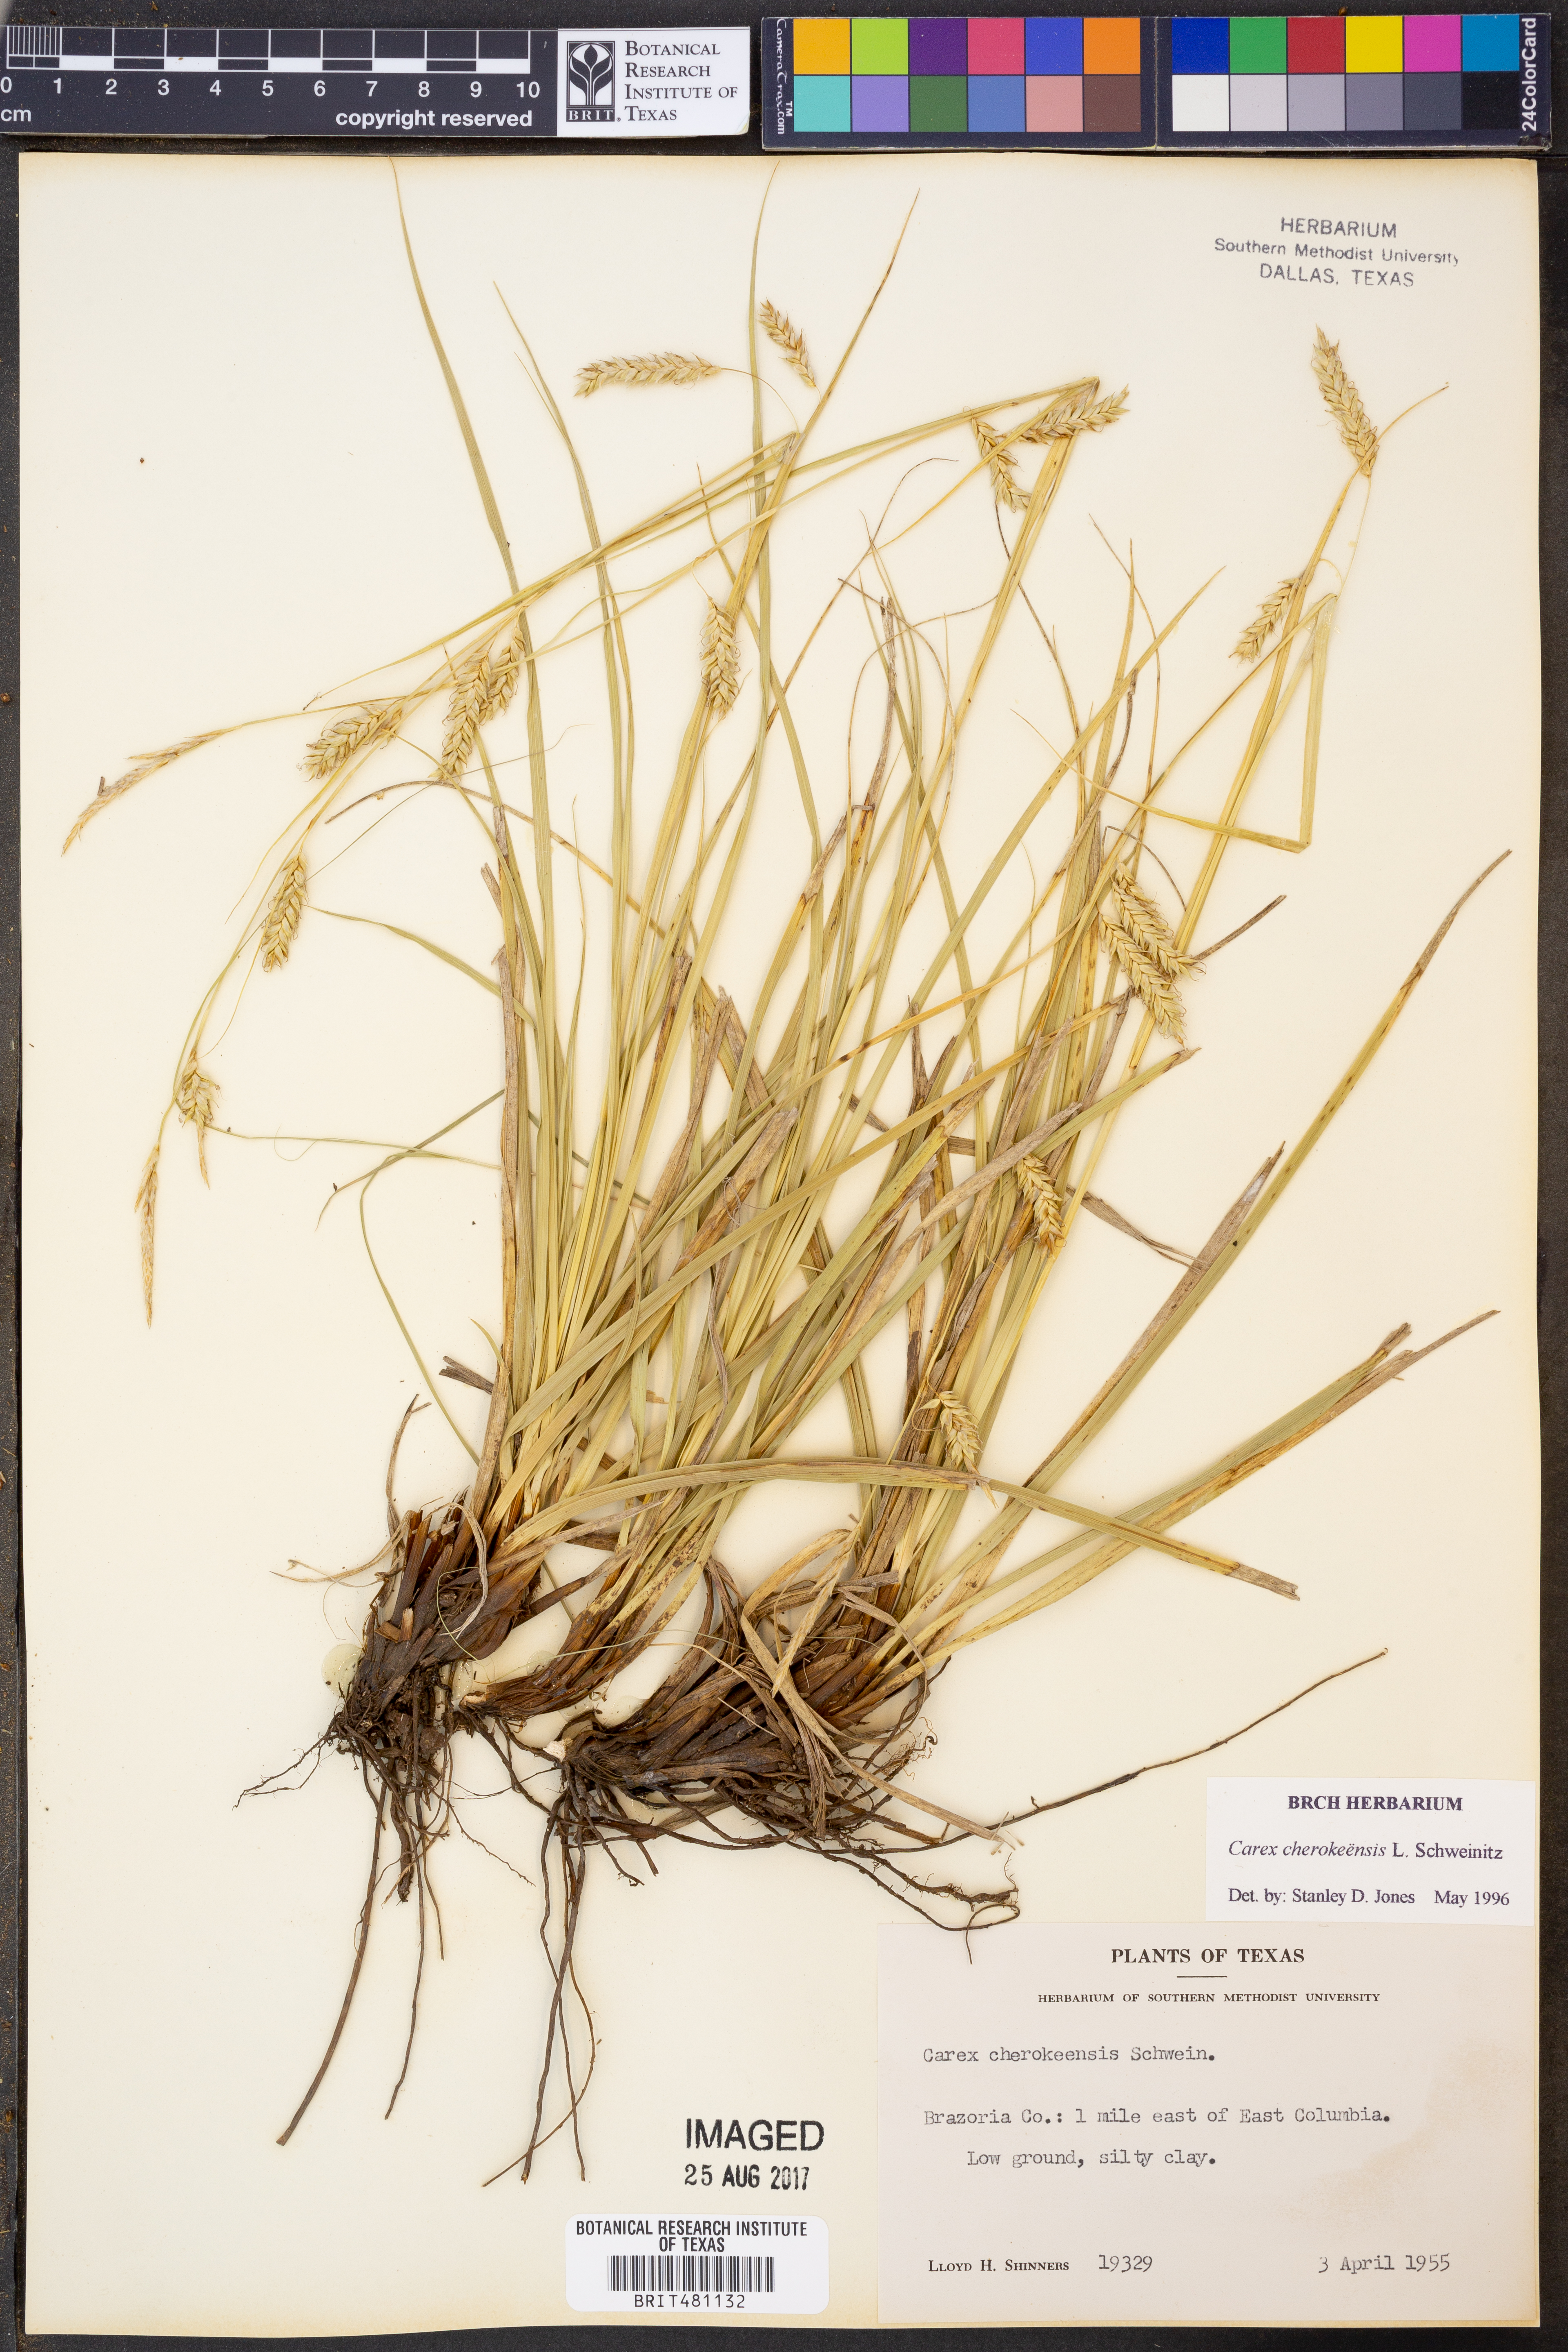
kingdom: Plantae
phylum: Tracheophyta
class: Liliopsida
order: Poales
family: Cyperaceae
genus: Carex
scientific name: Carex cherokeensis
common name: Cherokee sedge
